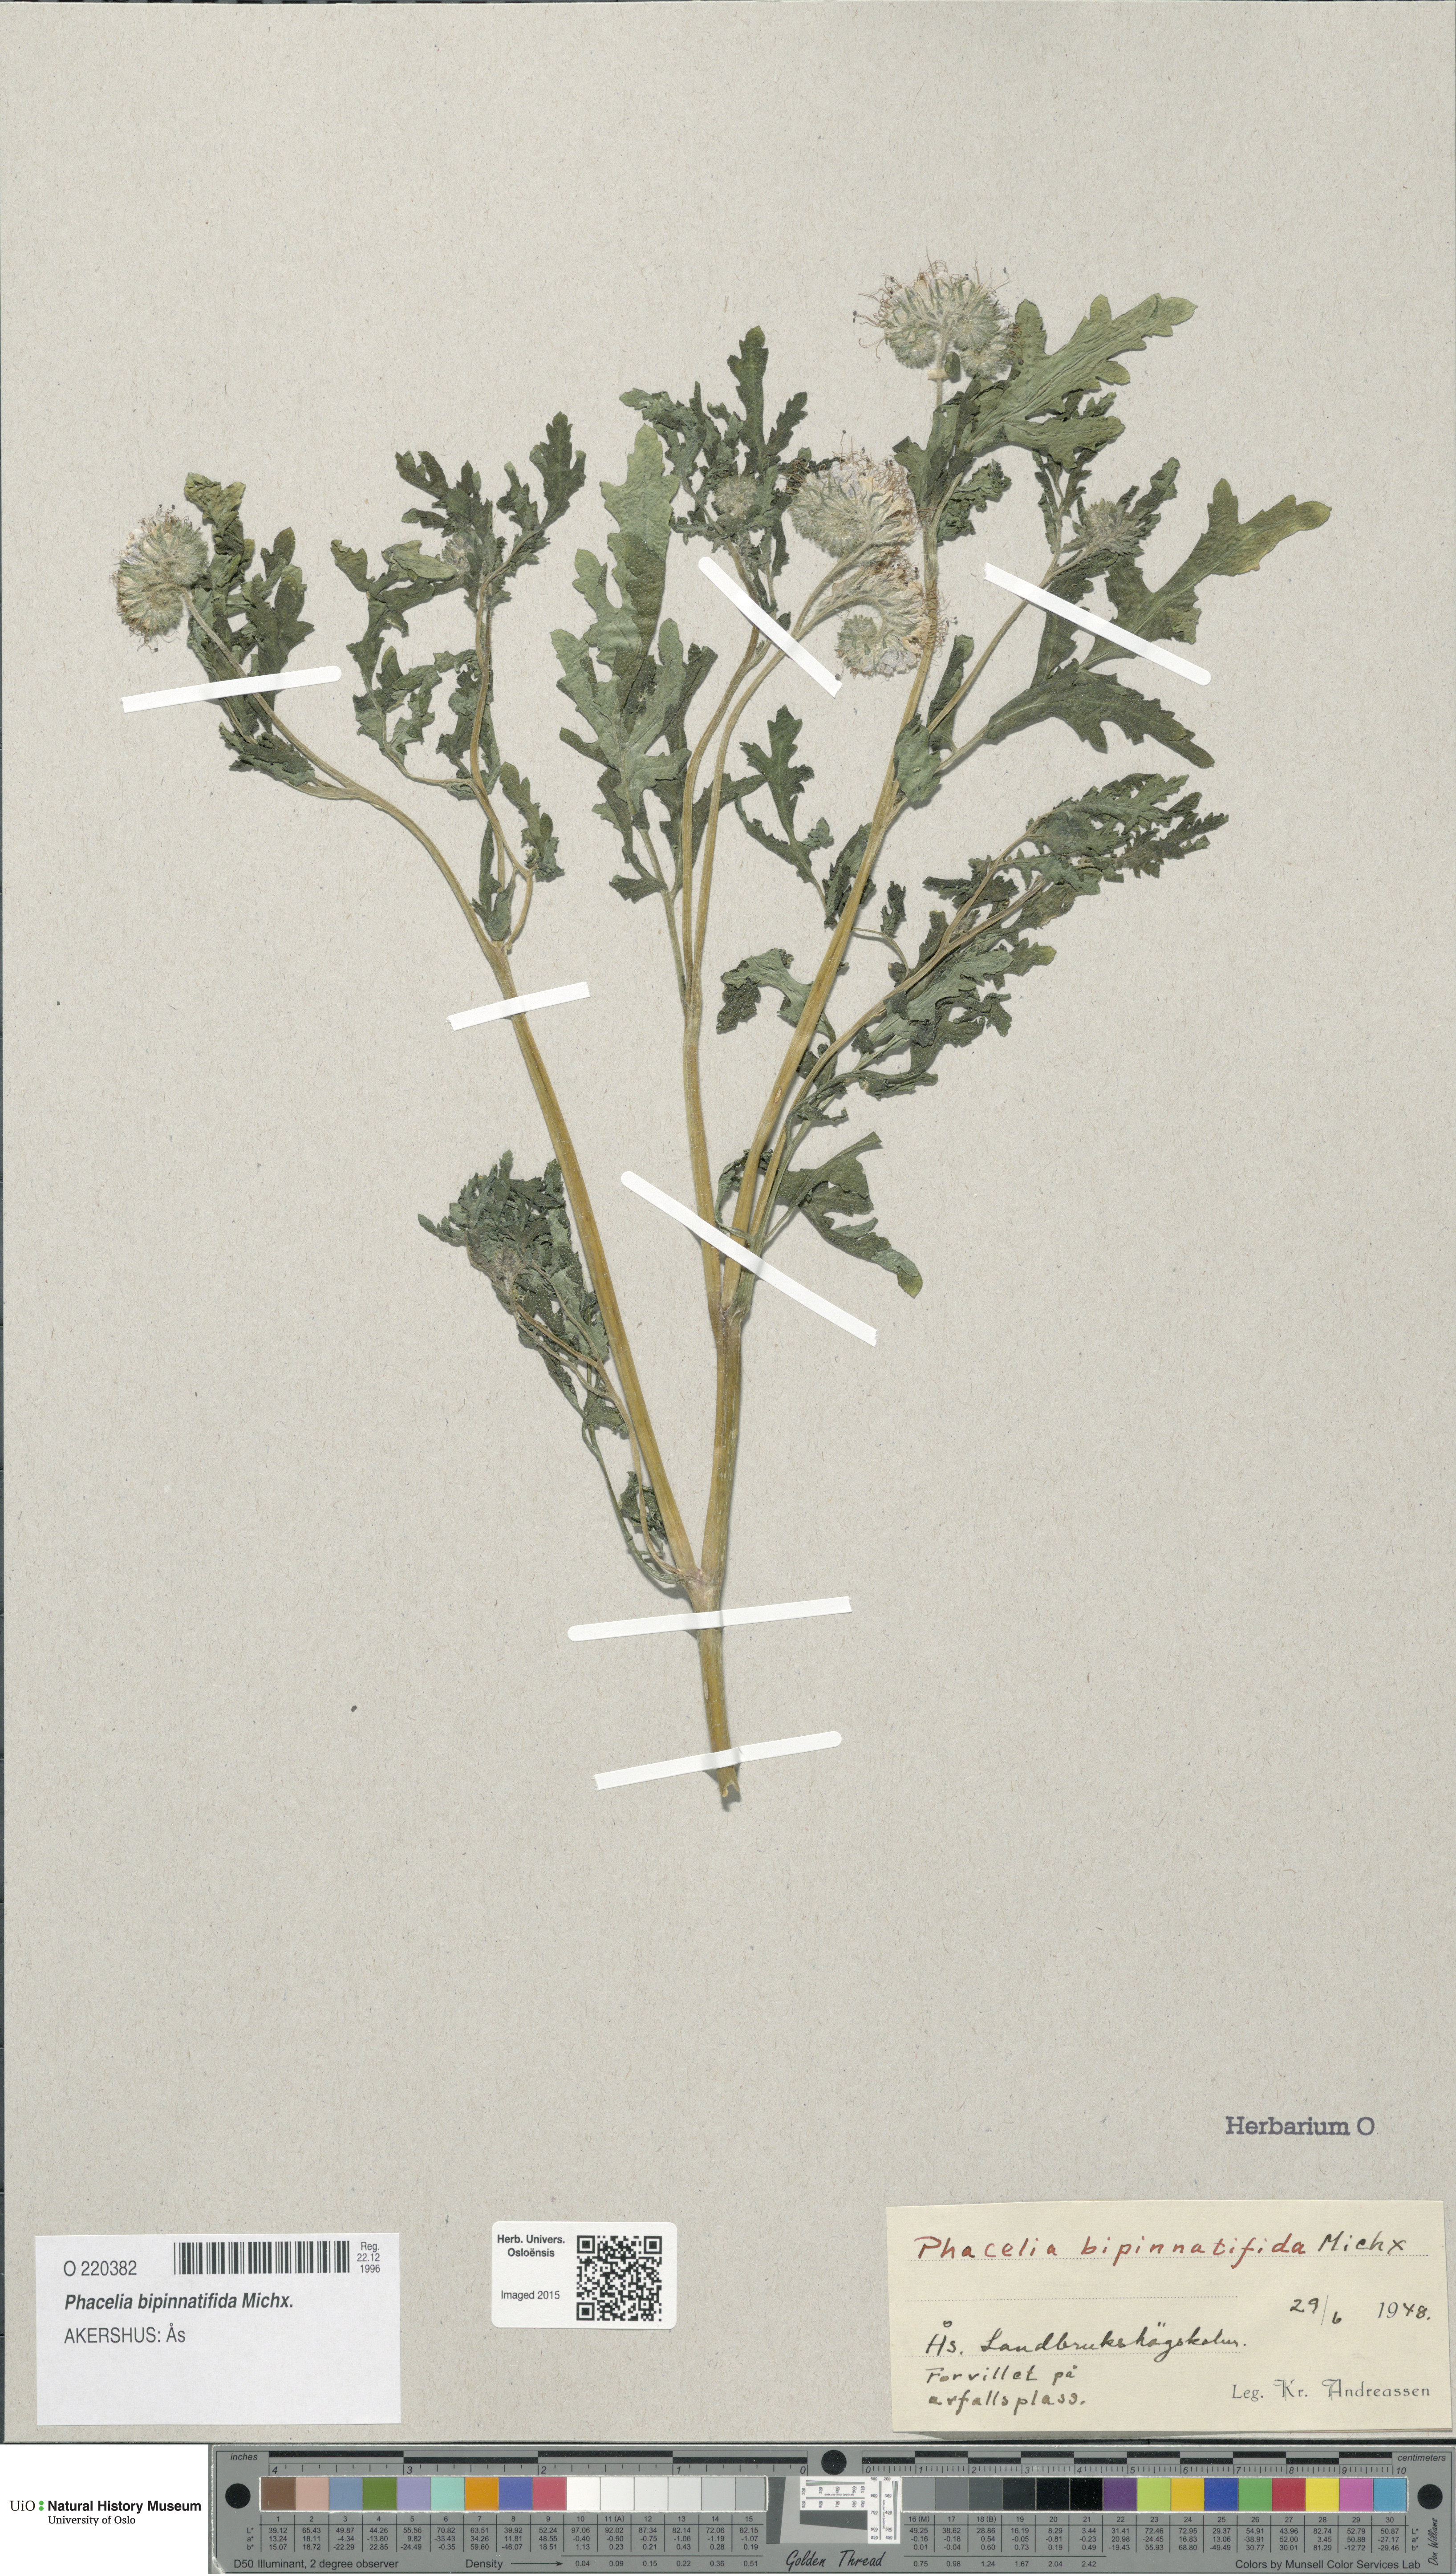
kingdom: Plantae
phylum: Tracheophyta
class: Magnoliopsida
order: Boraginales
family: Hydrophyllaceae
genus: Phacelia
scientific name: Phacelia bipinnatifida
